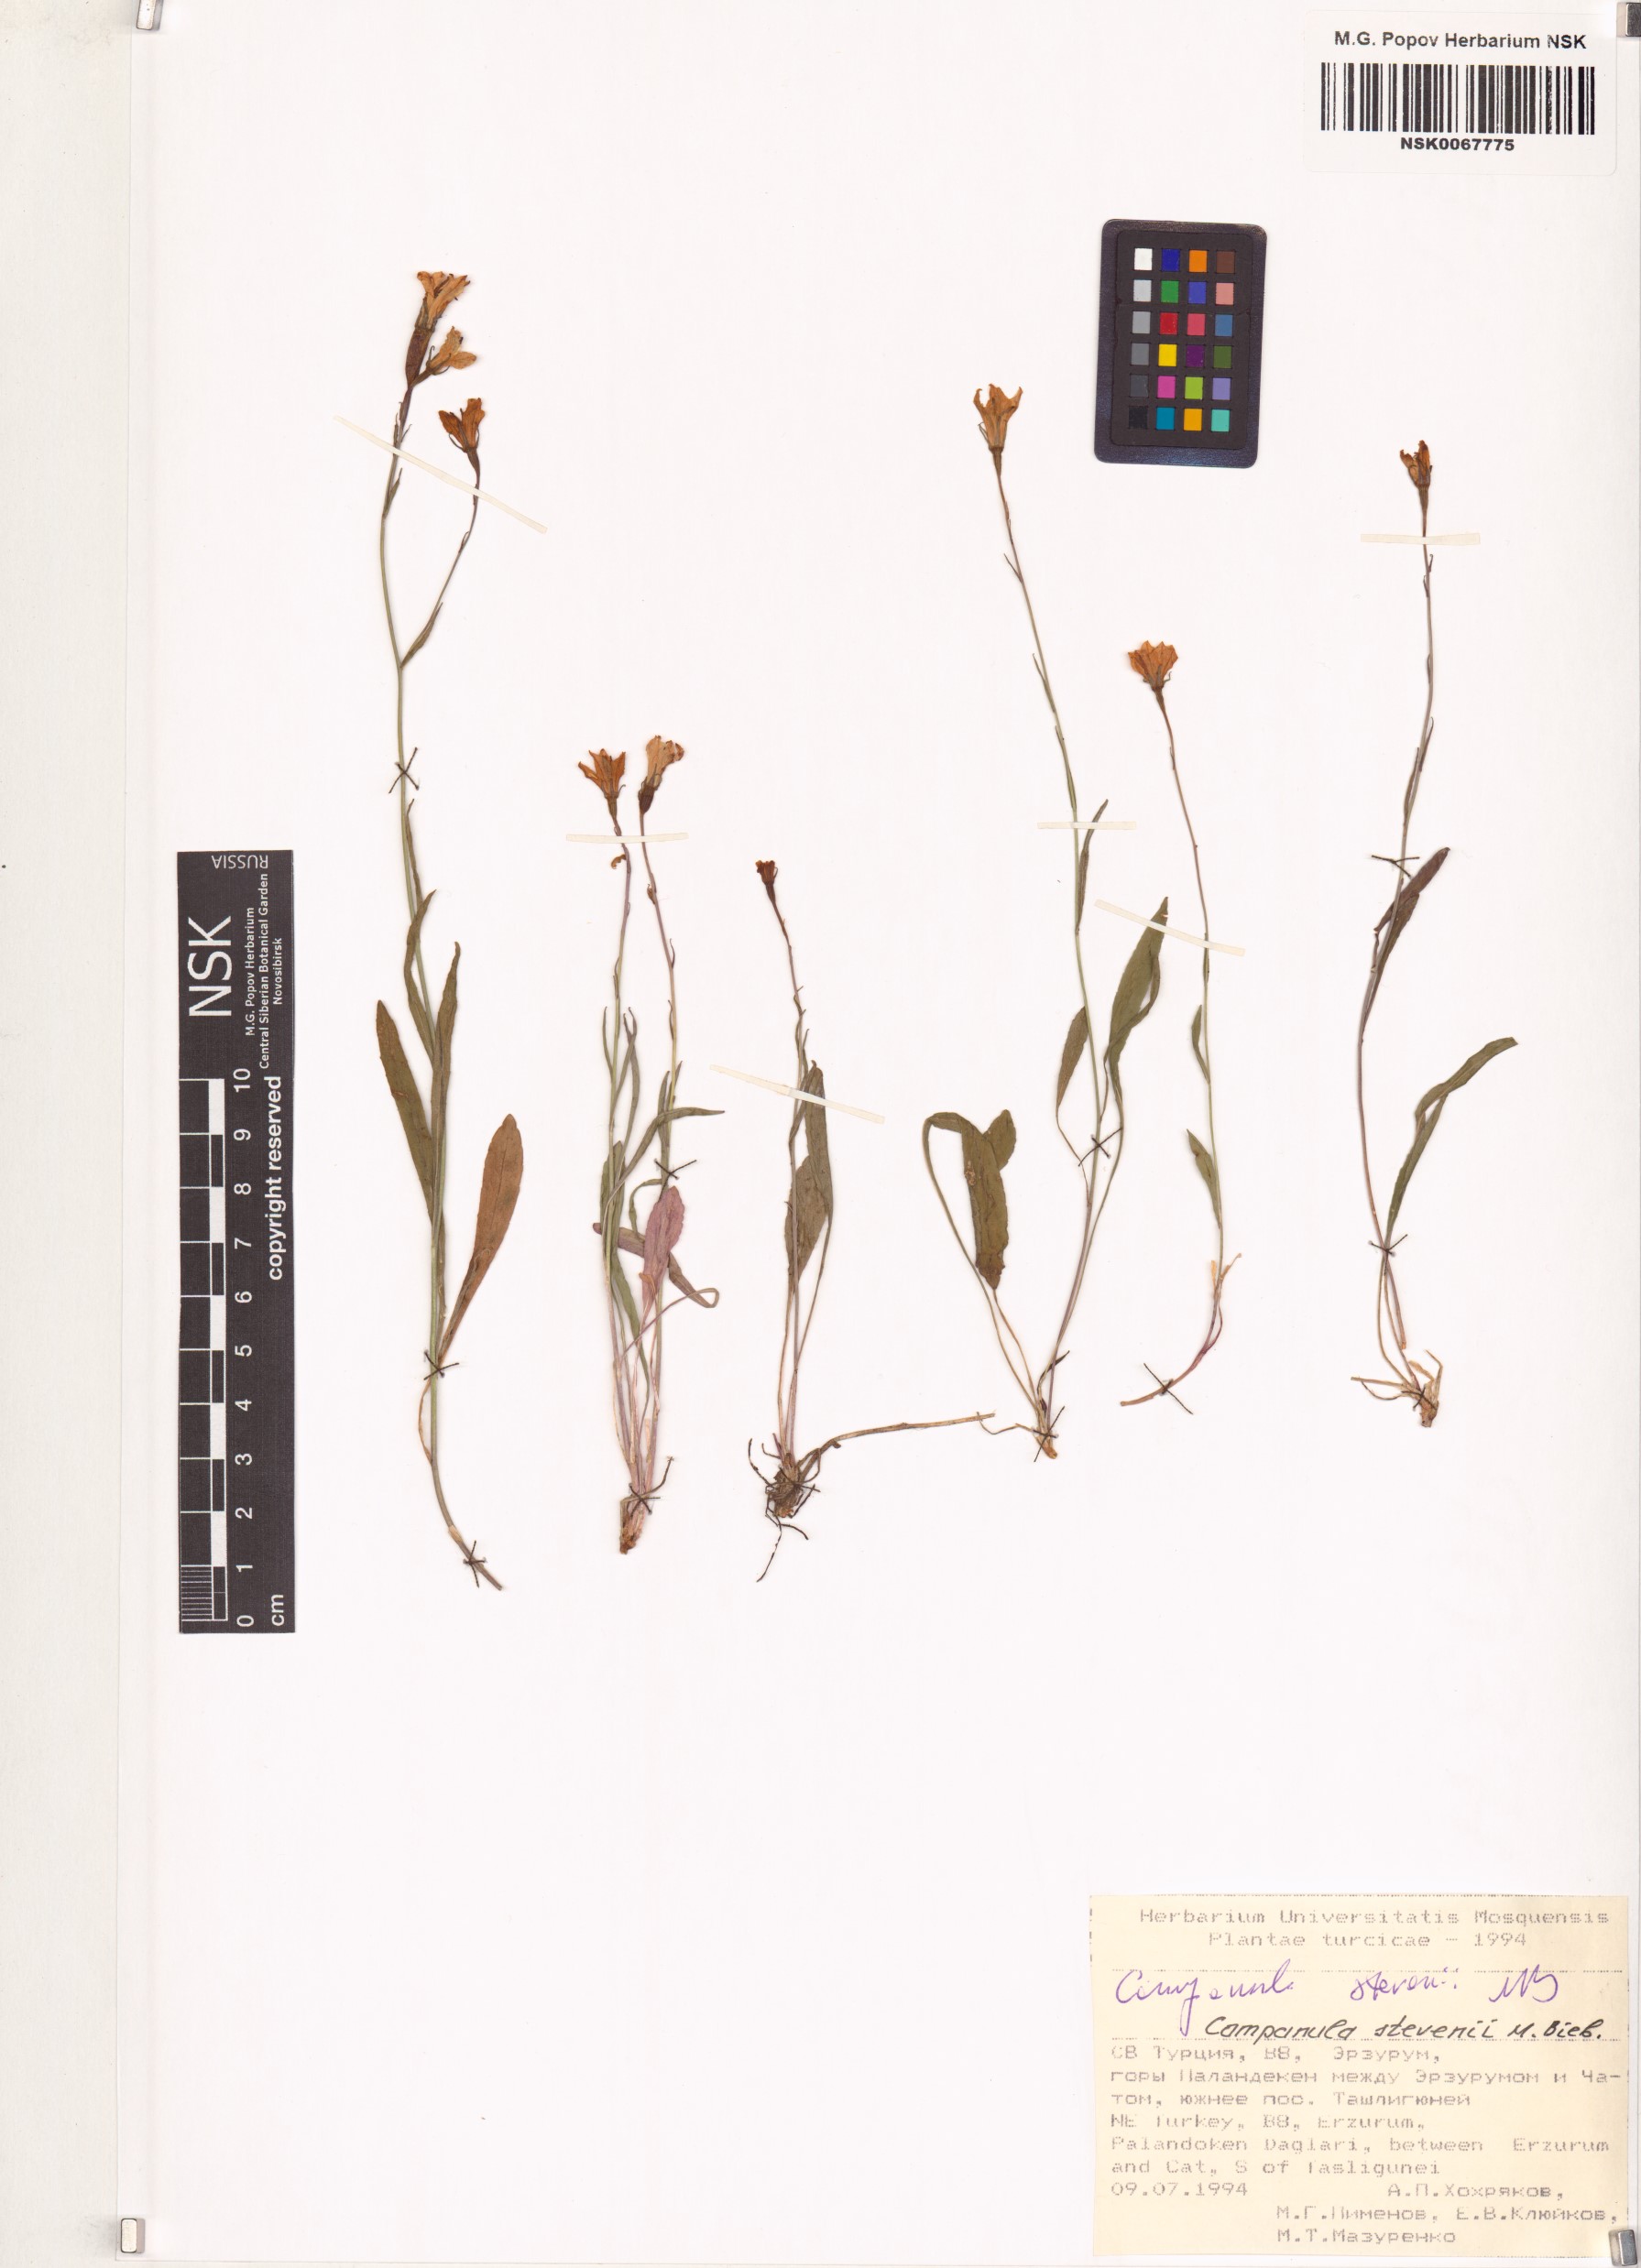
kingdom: Plantae
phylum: Tracheophyta
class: Magnoliopsida
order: Asterales
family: Campanulaceae
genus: Campanula
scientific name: Campanula stevenii
